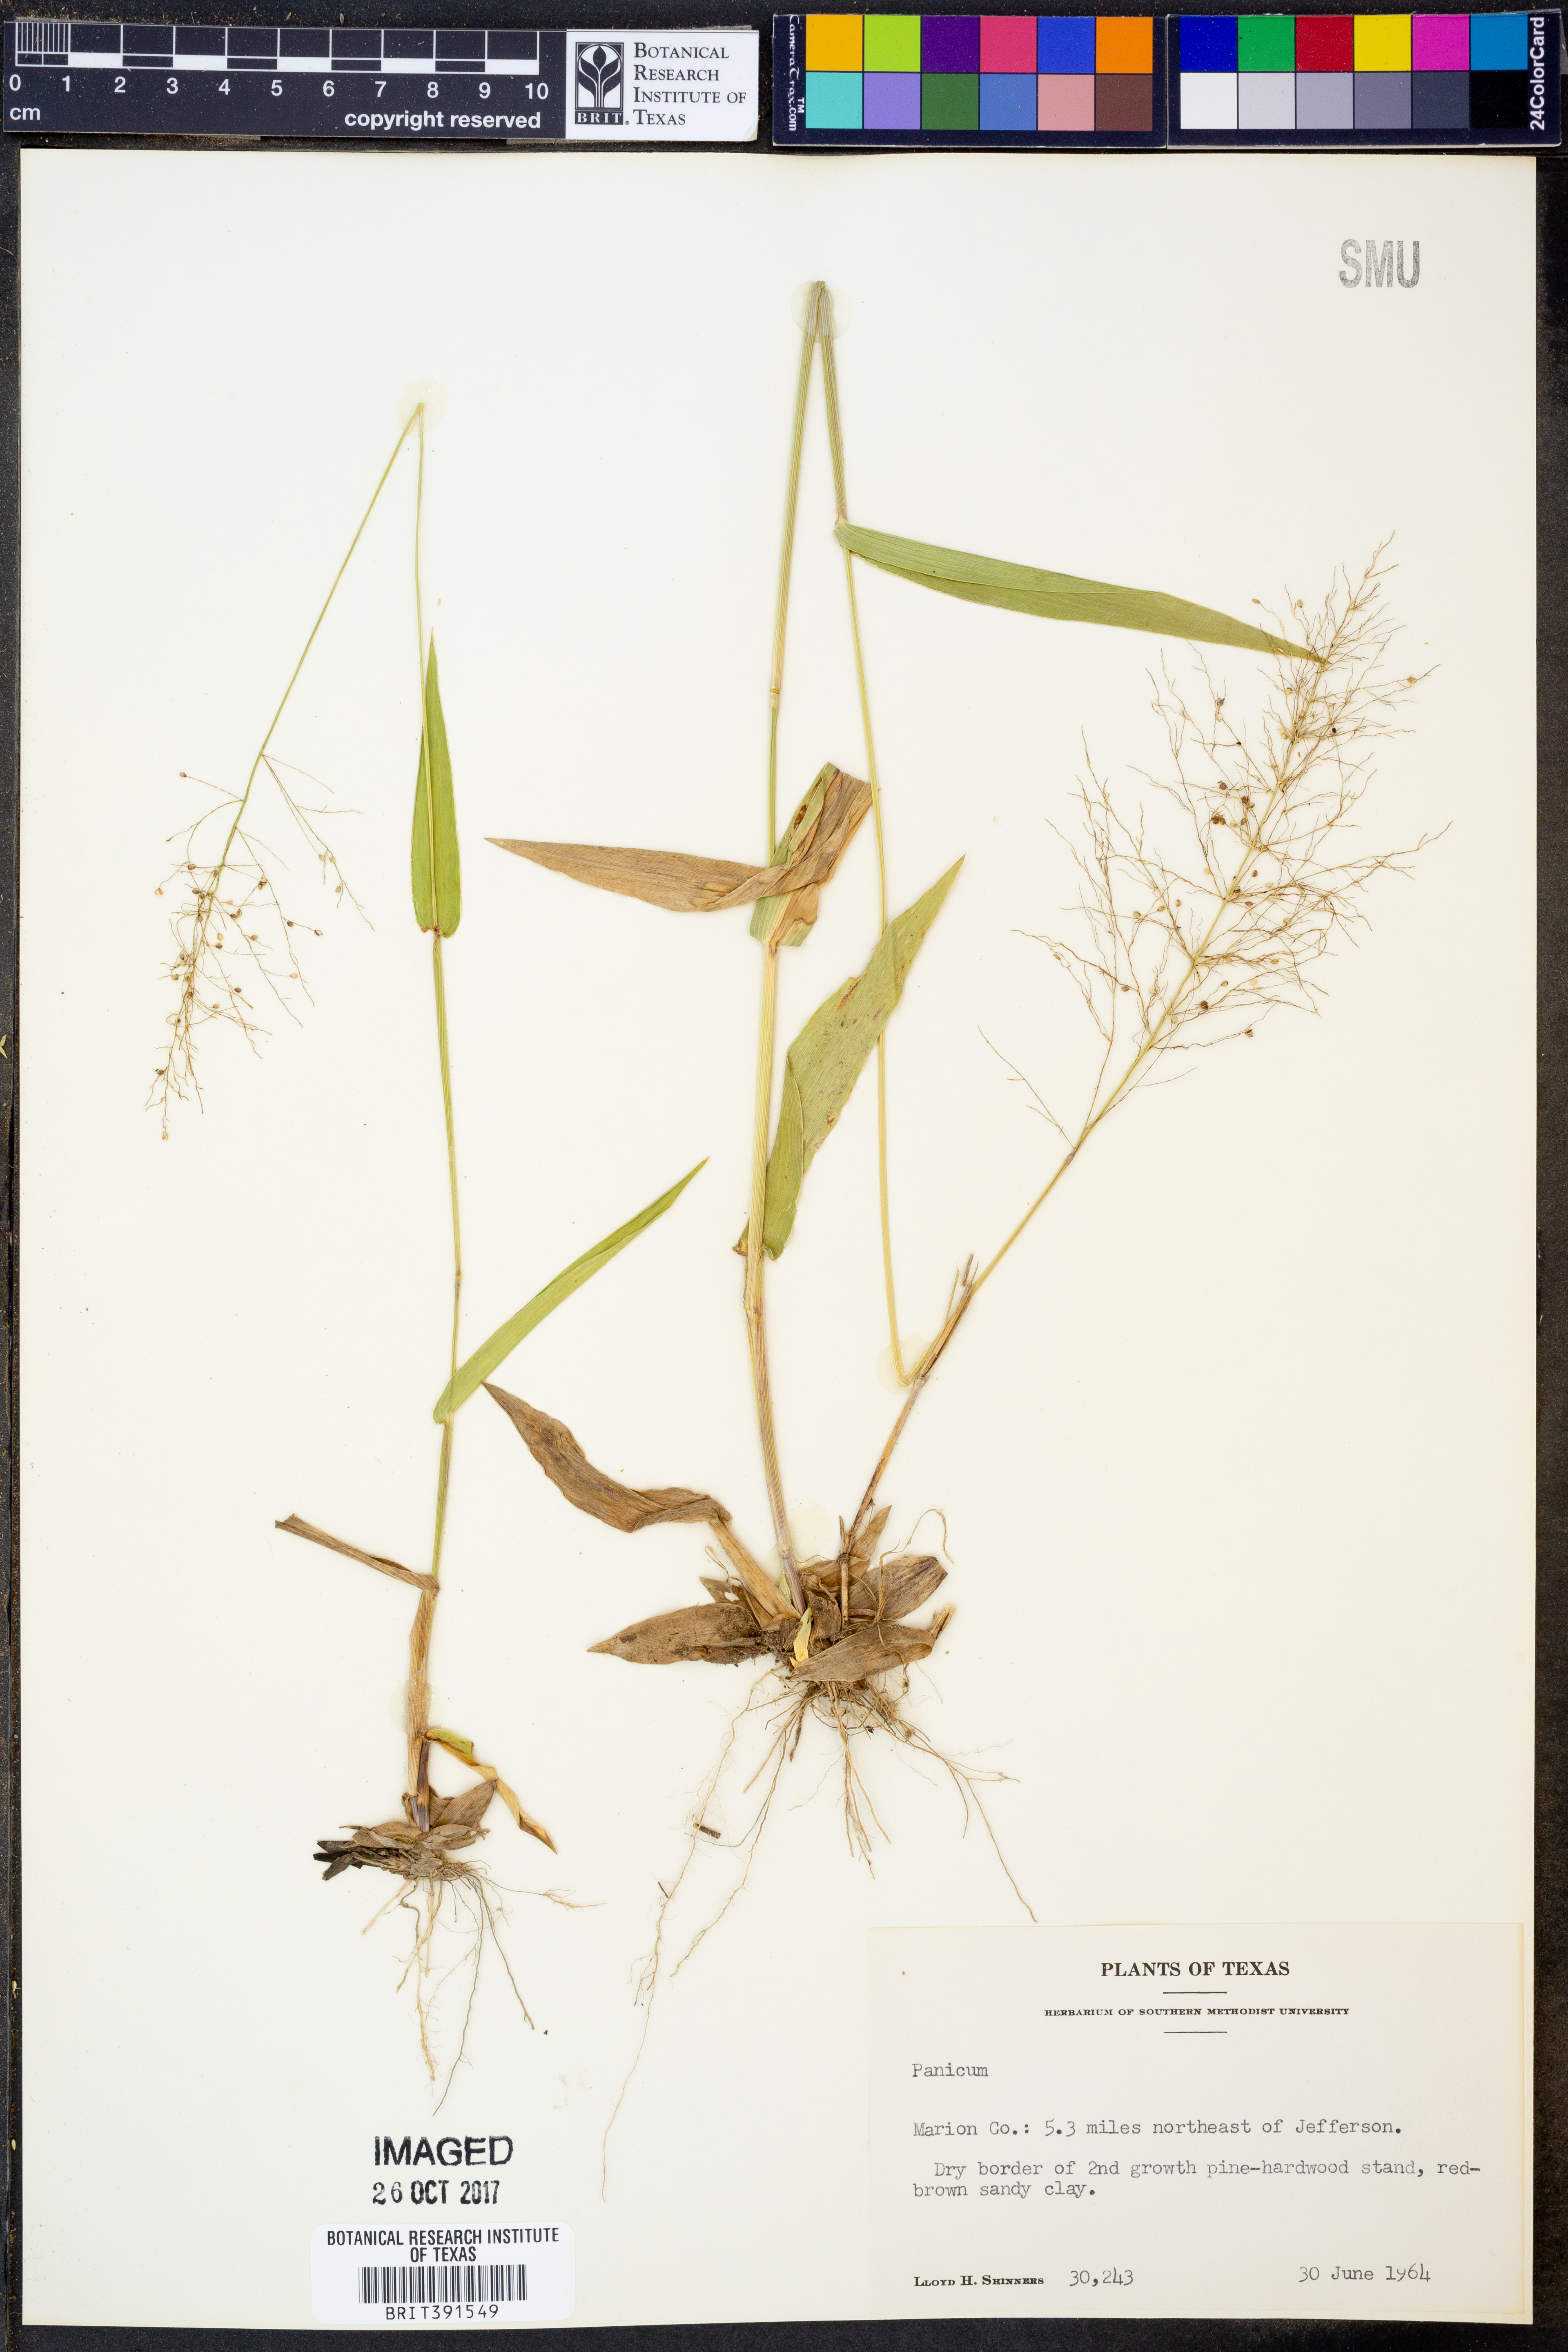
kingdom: Plantae
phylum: Tracheophyta
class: Liliopsida
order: Poales
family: Poaceae
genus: Panicum
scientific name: Panicum
